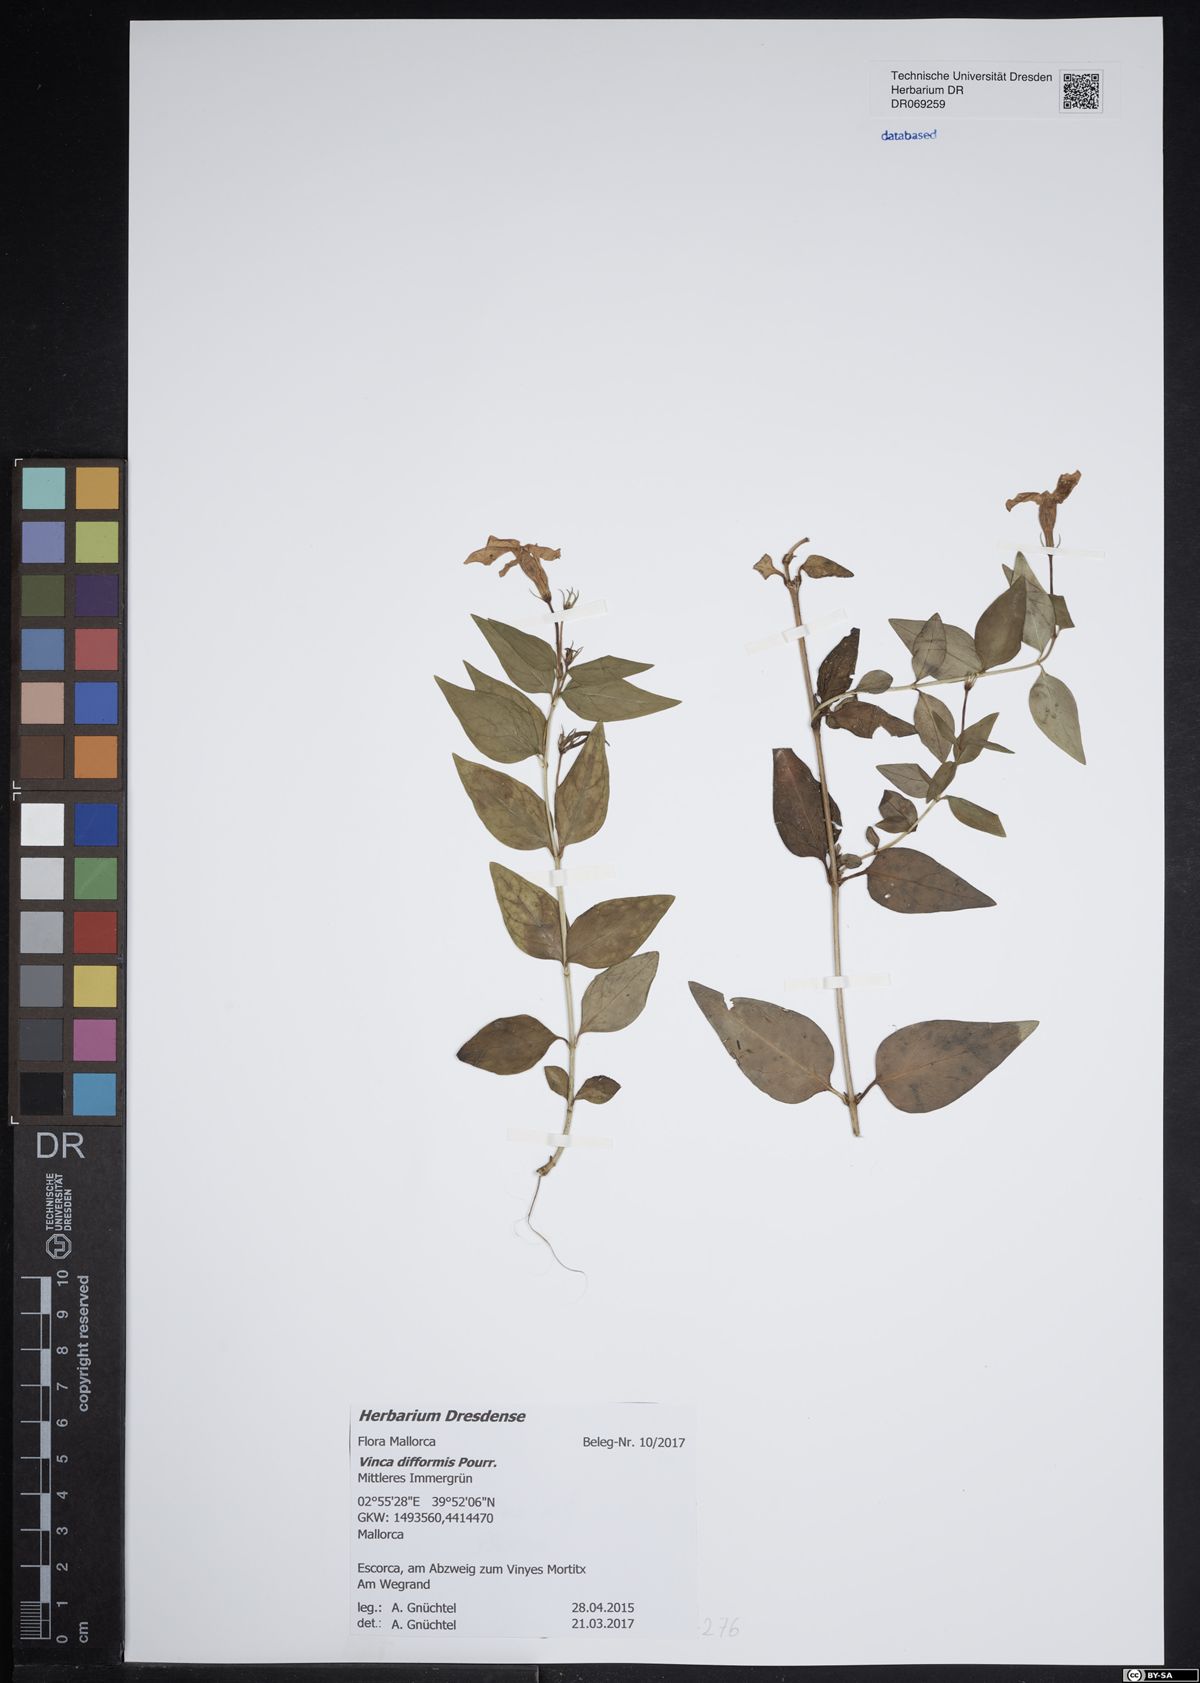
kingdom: Plantae
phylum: Tracheophyta
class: Magnoliopsida
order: Gentianales
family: Apocynaceae
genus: Vinca
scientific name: Vinca difformis
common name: Intermediate periwinkle
